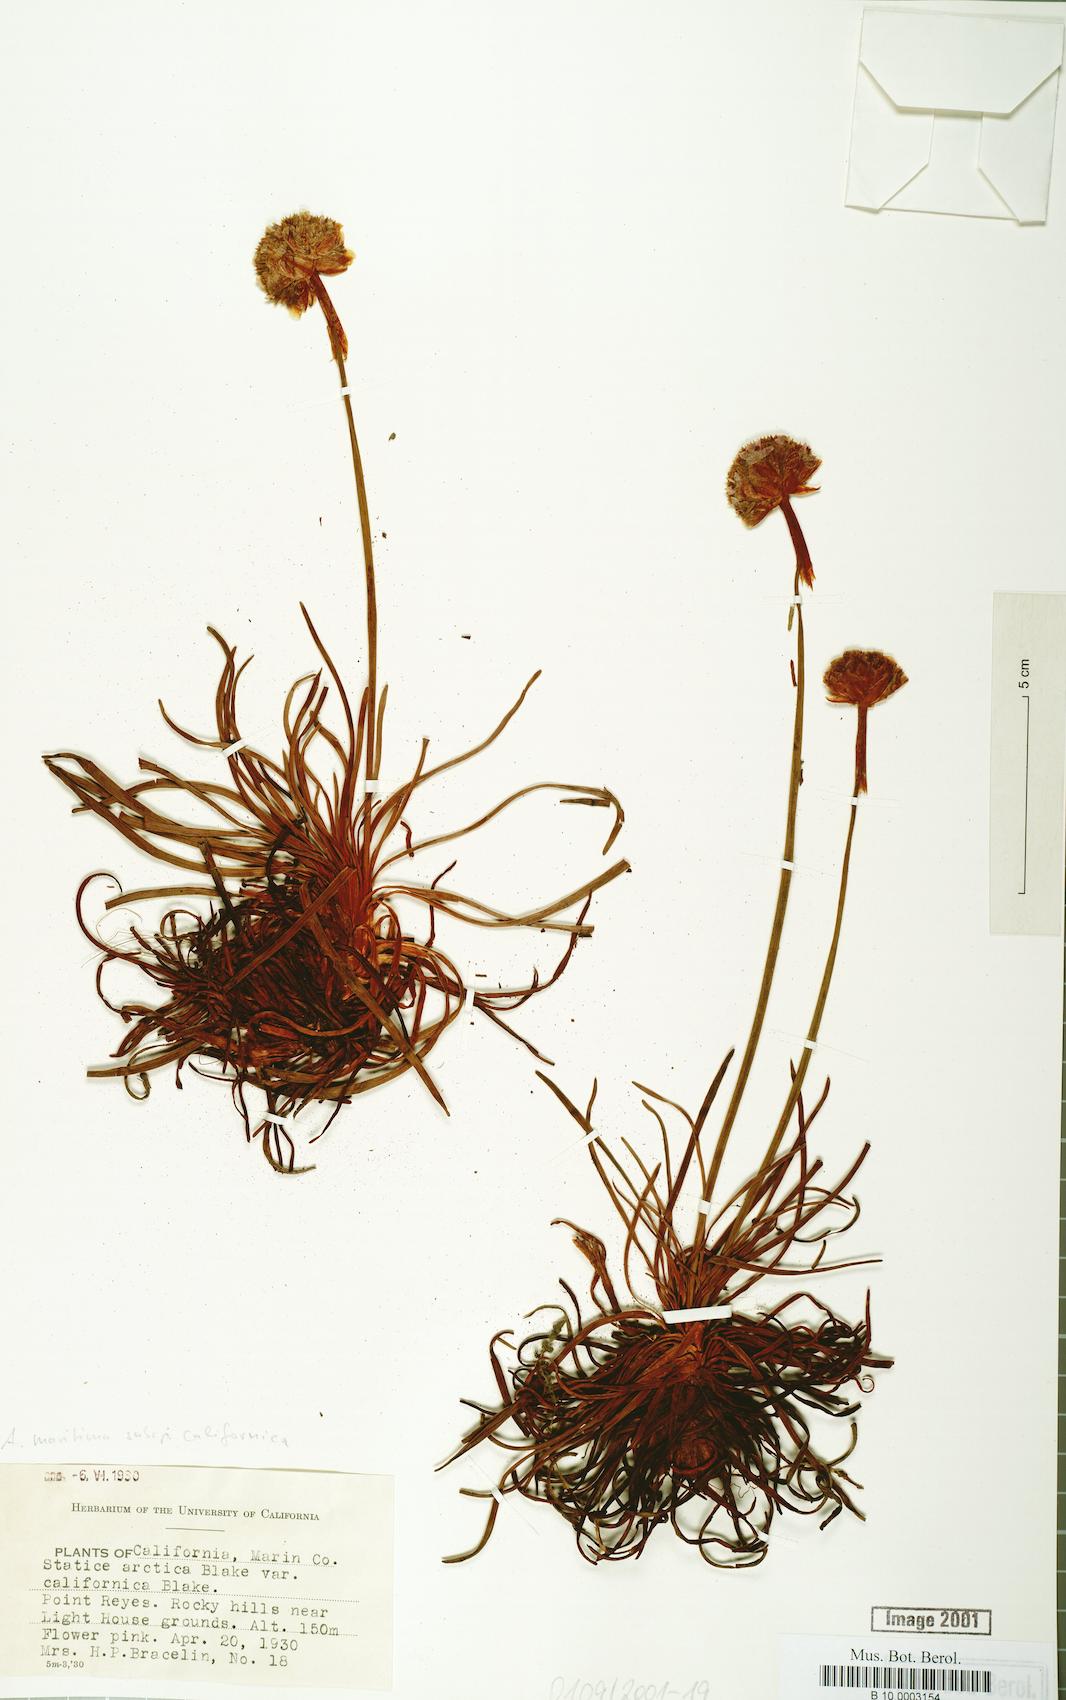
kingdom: Plantae
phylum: Tracheophyta
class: Magnoliopsida
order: Caryophyllales
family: Plumbaginaceae
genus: Armeria
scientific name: Armeria maritima
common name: Thrift
